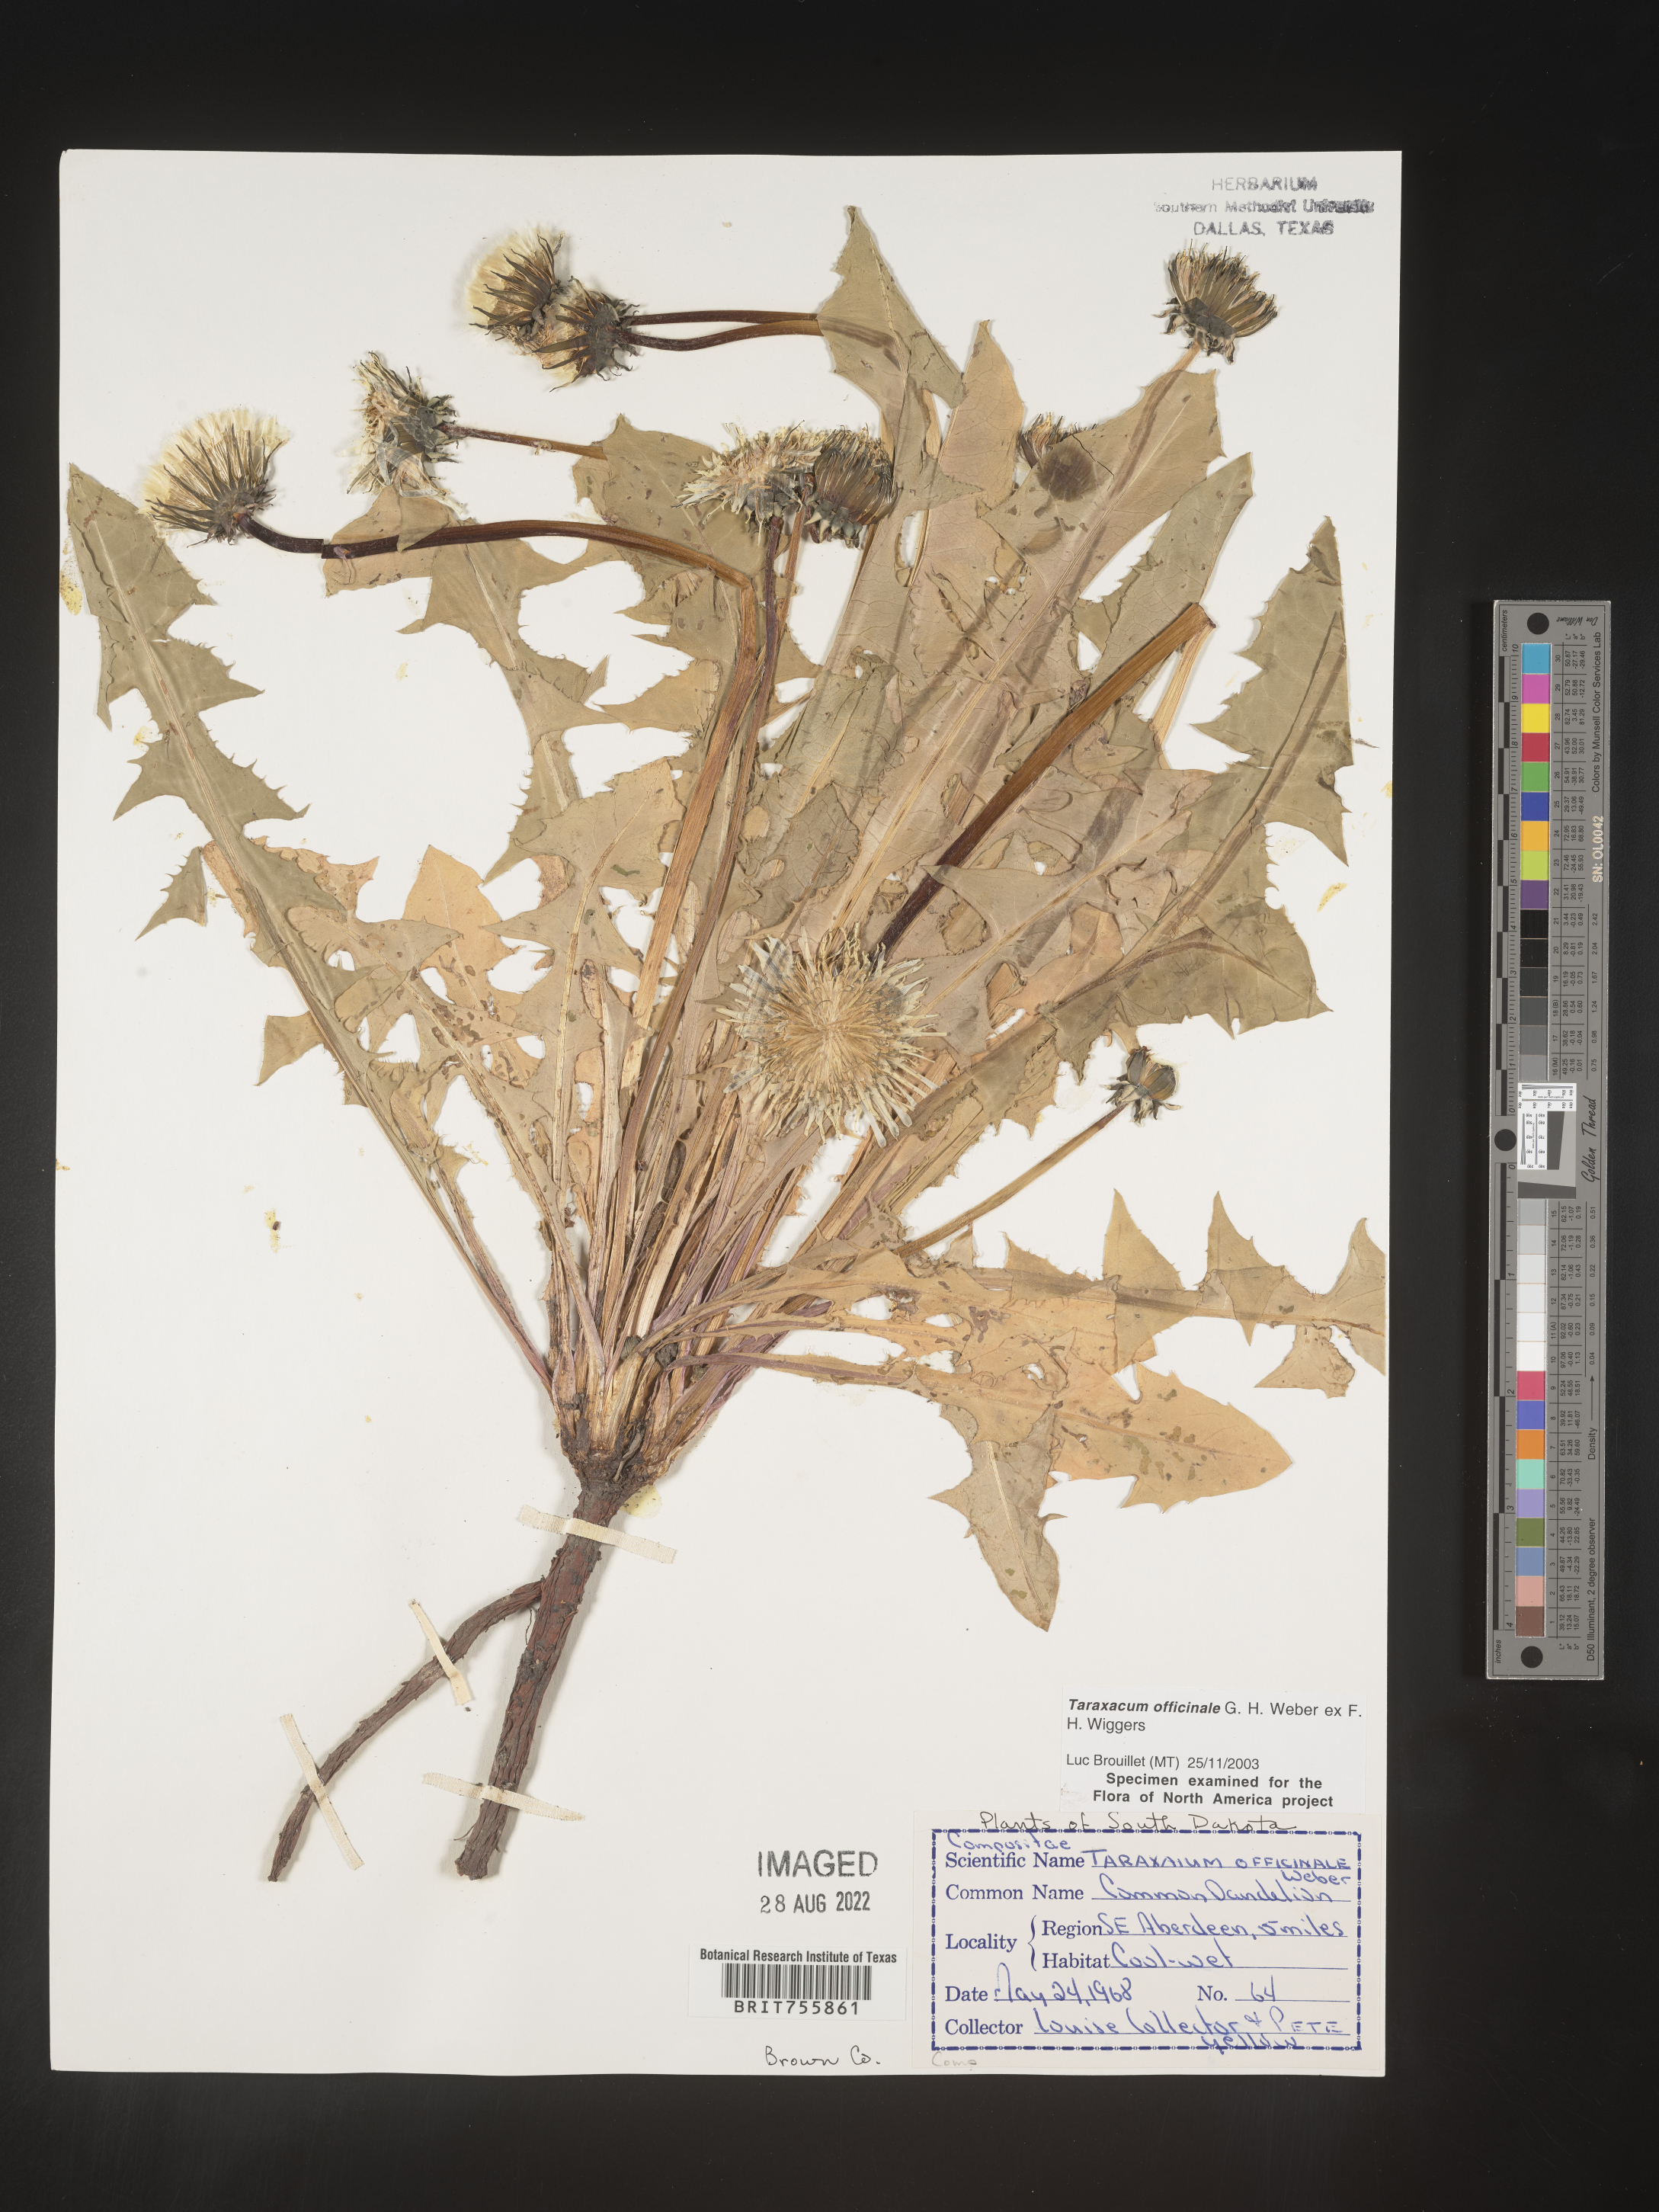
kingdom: Plantae
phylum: Tracheophyta
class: Magnoliopsida
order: Asterales
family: Asteraceae
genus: Taraxacum
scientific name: Taraxacum officinale
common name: Common dandelion
